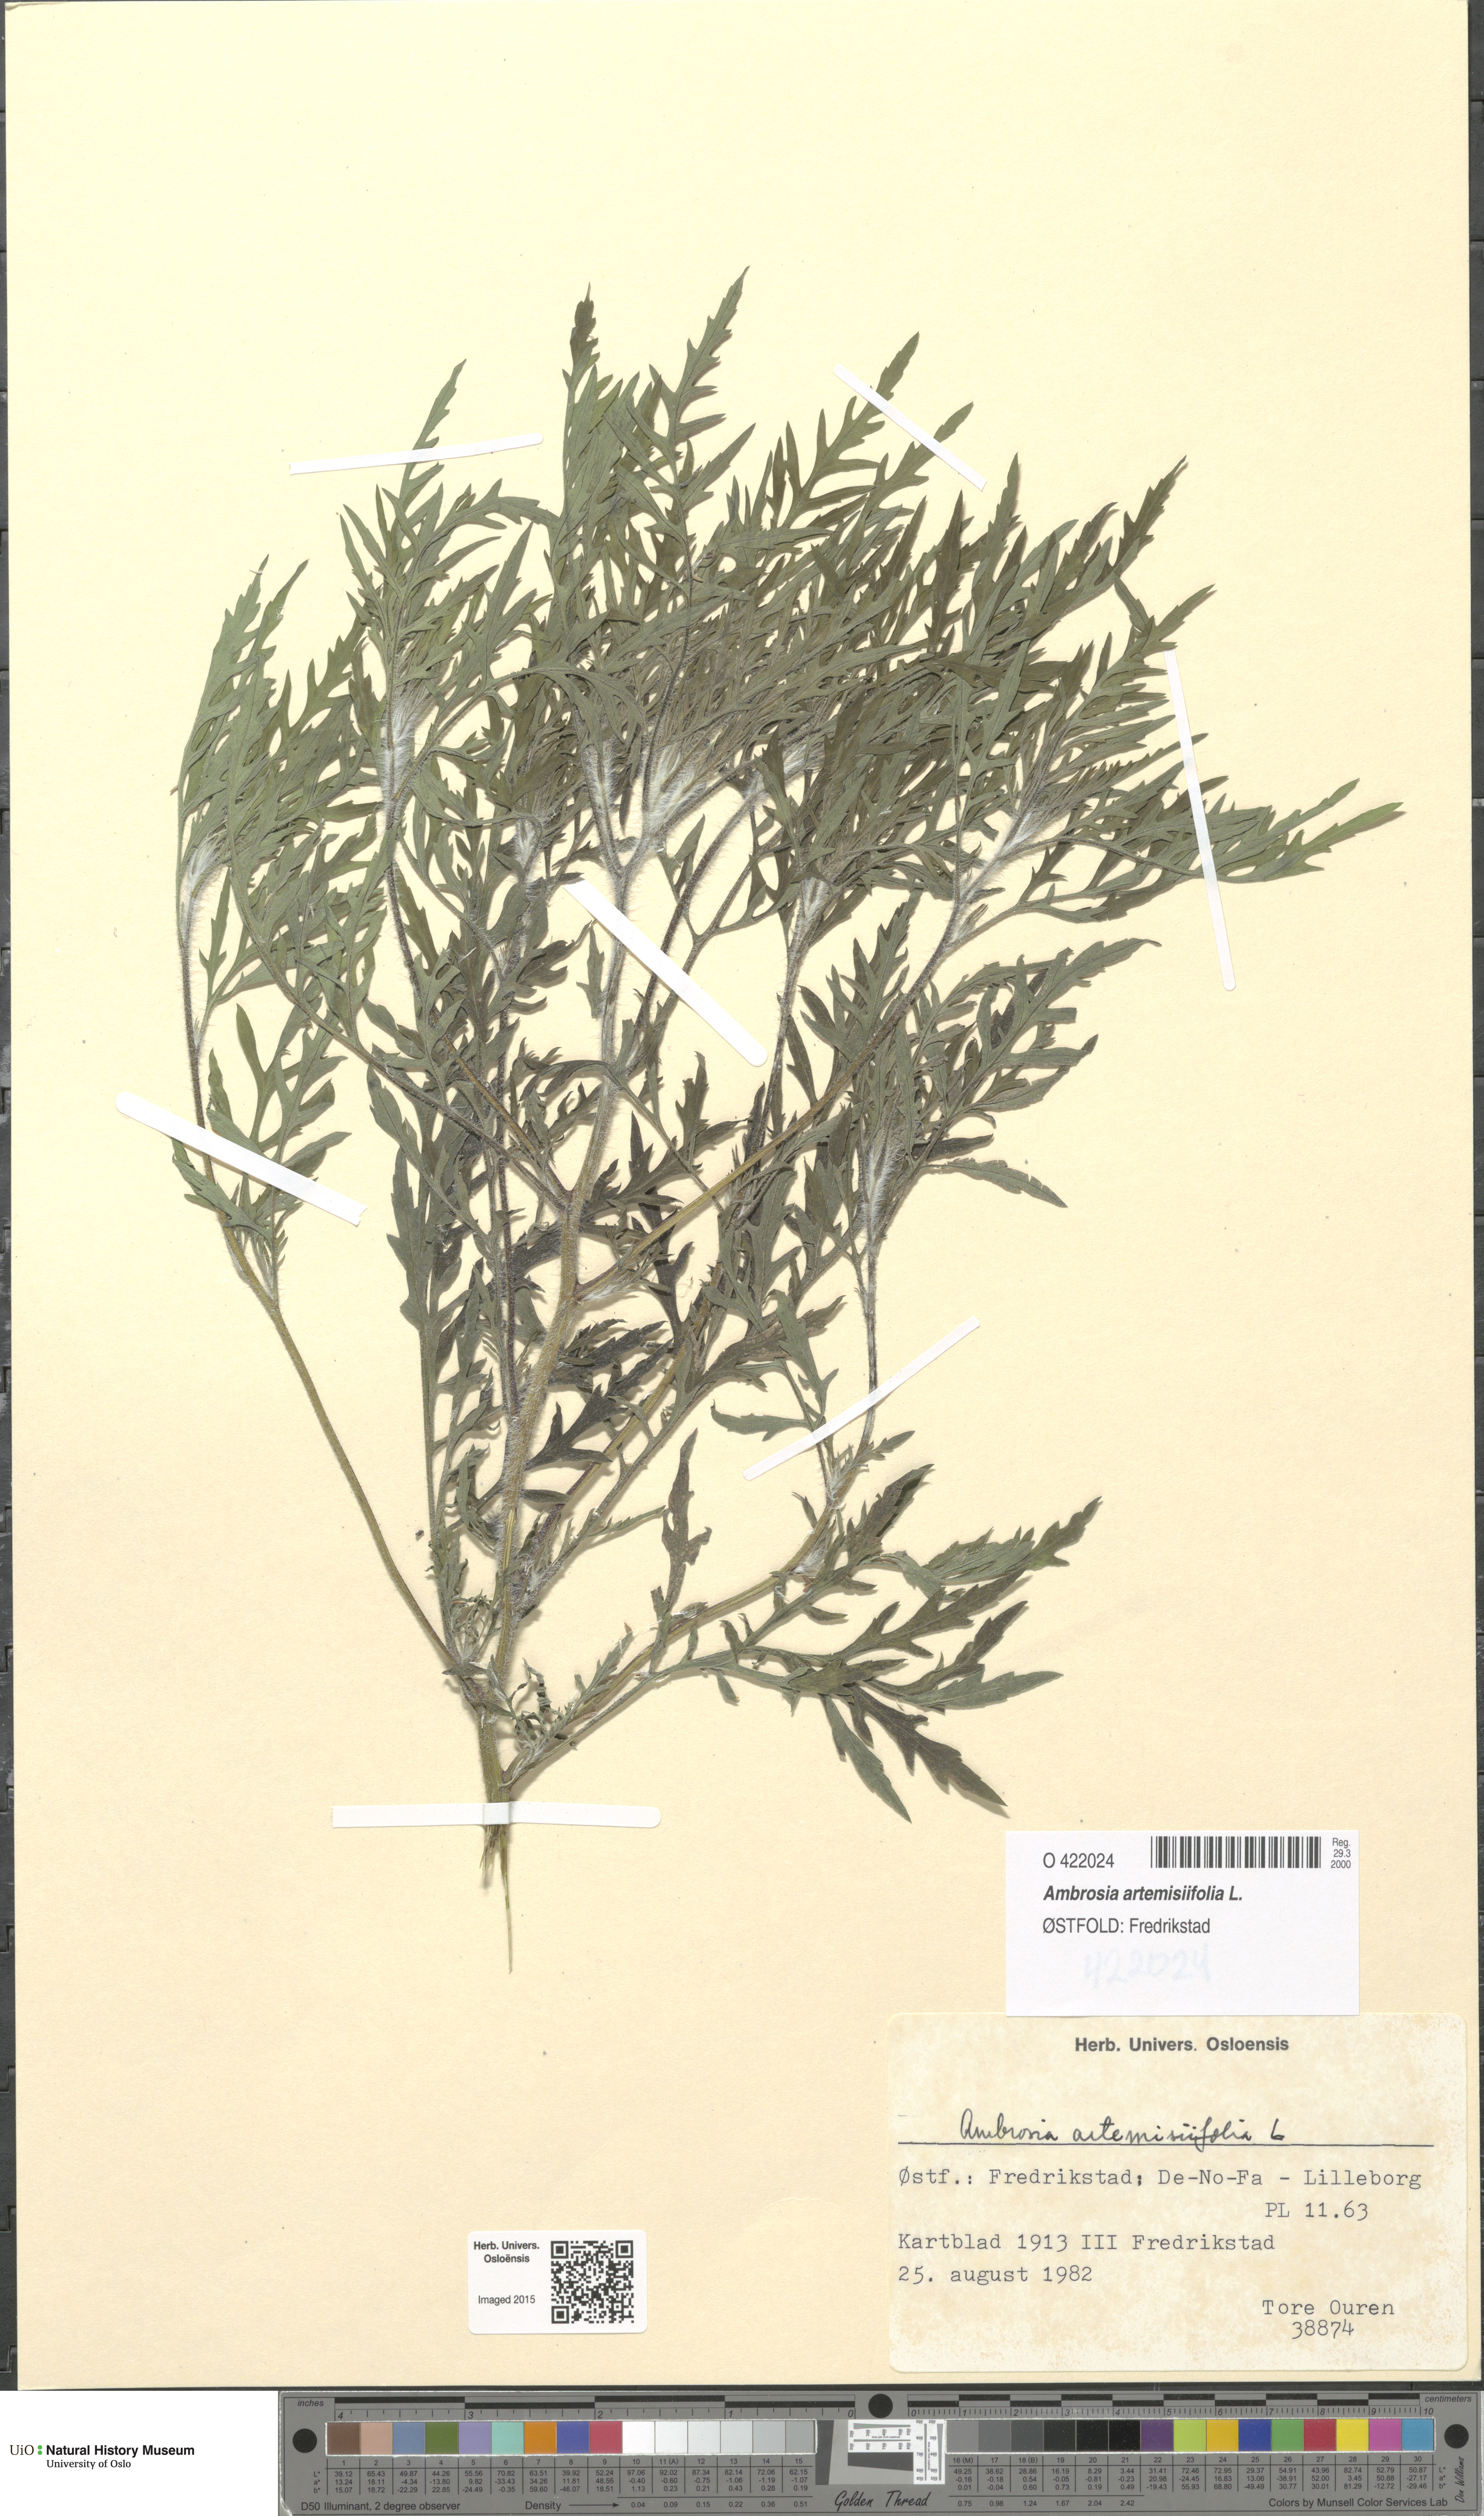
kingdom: Plantae
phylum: Tracheophyta
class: Magnoliopsida
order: Asterales
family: Asteraceae
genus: Ambrosia
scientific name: Ambrosia artemisiifolia
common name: Annual ragweed
